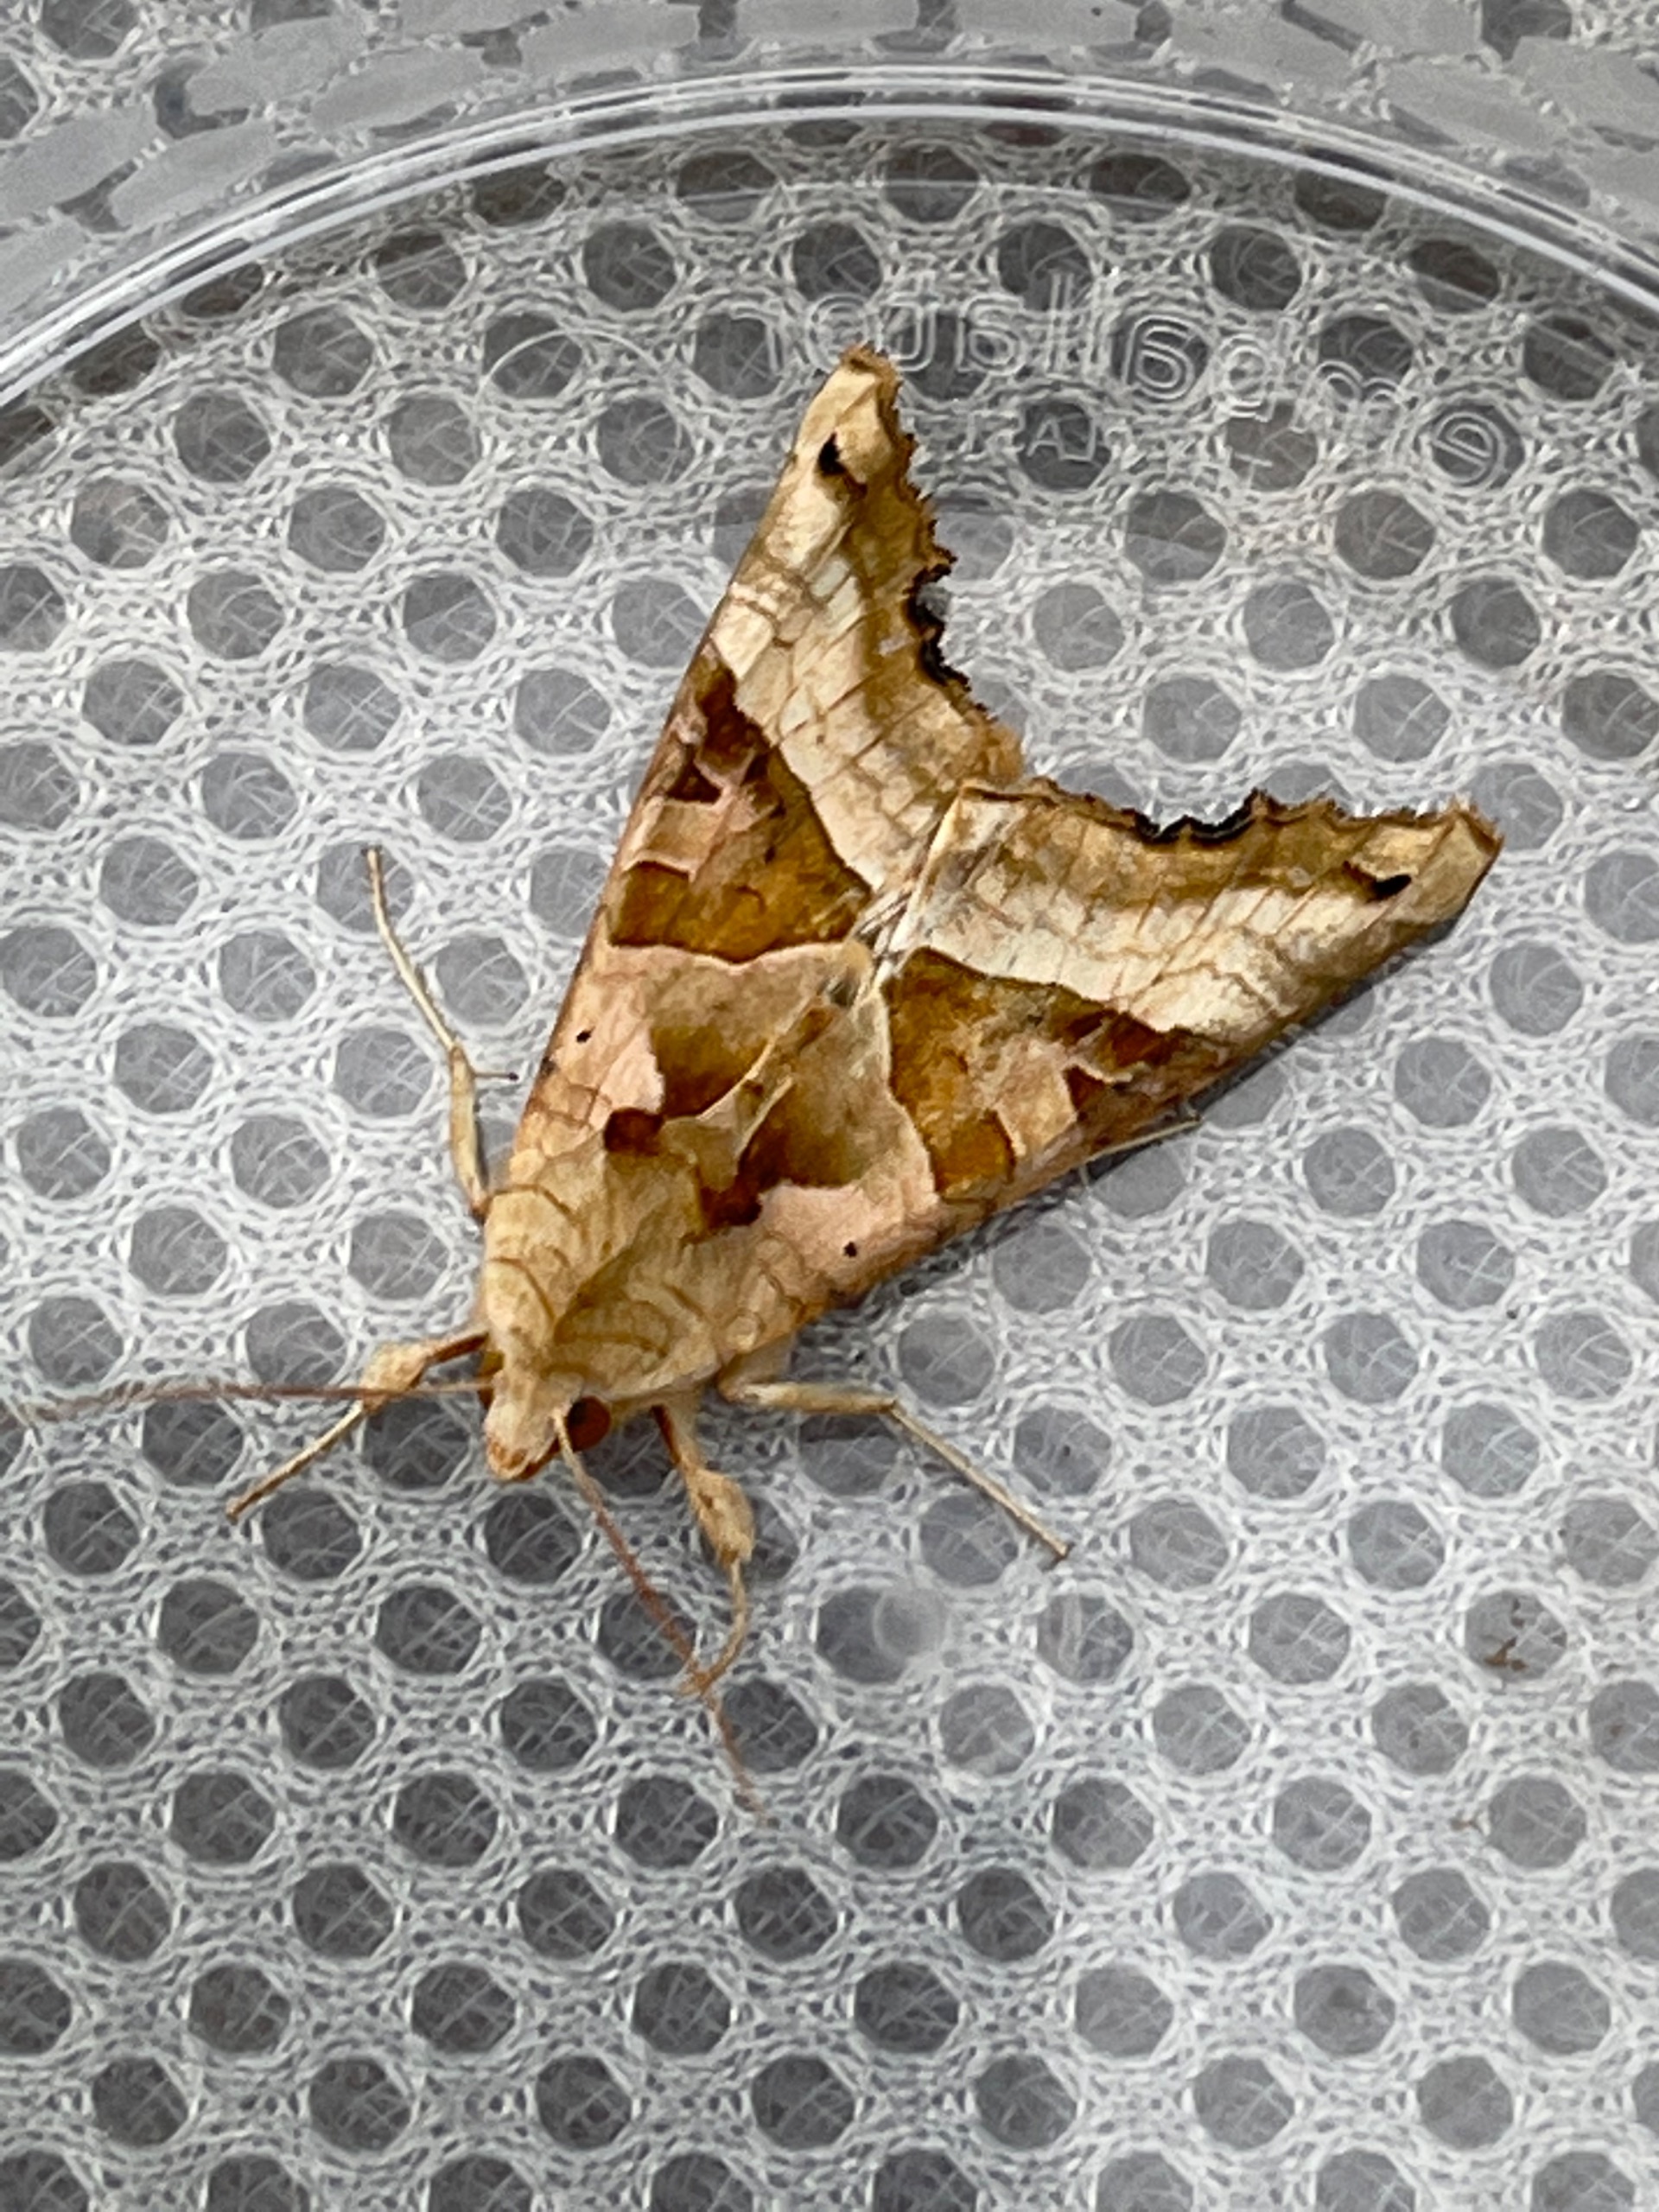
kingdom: Animalia
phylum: Arthropoda
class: Insecta
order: Lepidoptera
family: Noctuidae
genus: Phlogophora
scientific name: Phlogophora meticulosa
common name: Agatugle
